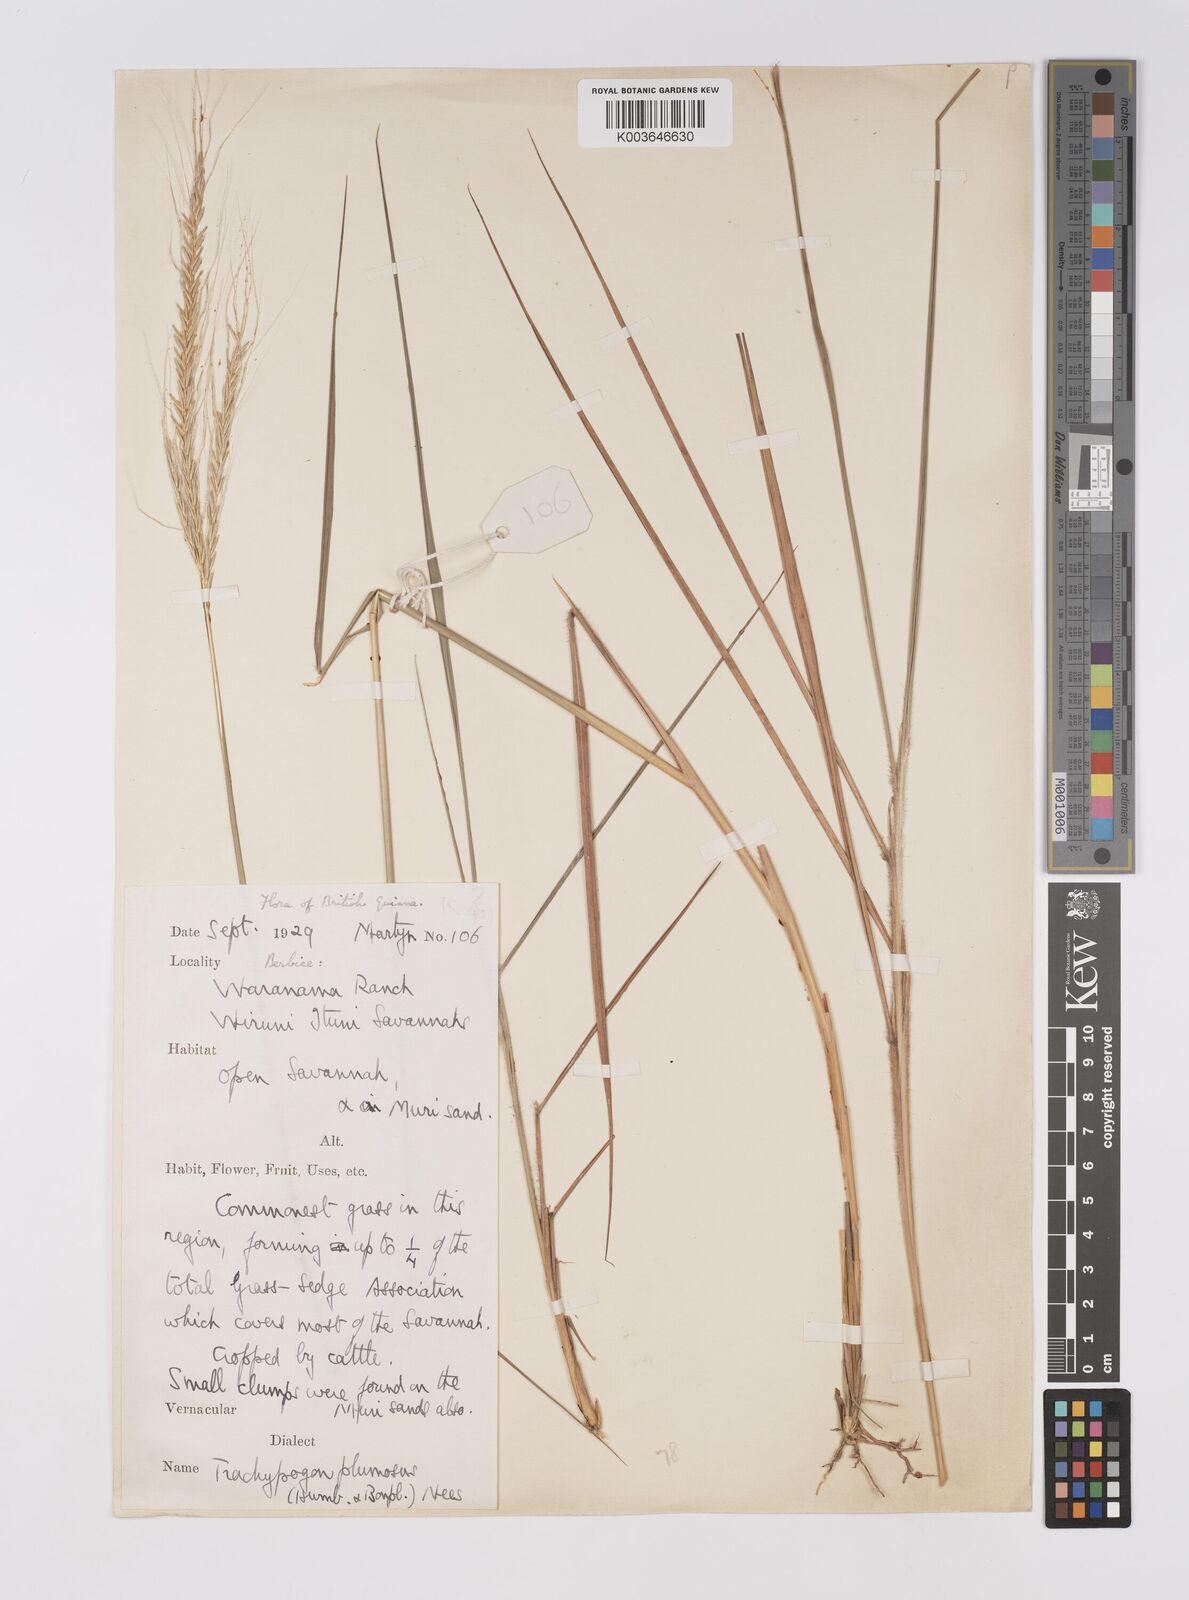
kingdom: Plantae
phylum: Tracheophyta
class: Liliopsida
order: Poales
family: Poaceae
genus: Trachypogon
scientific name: Trachypogon spicatus
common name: Crinkle-awn
